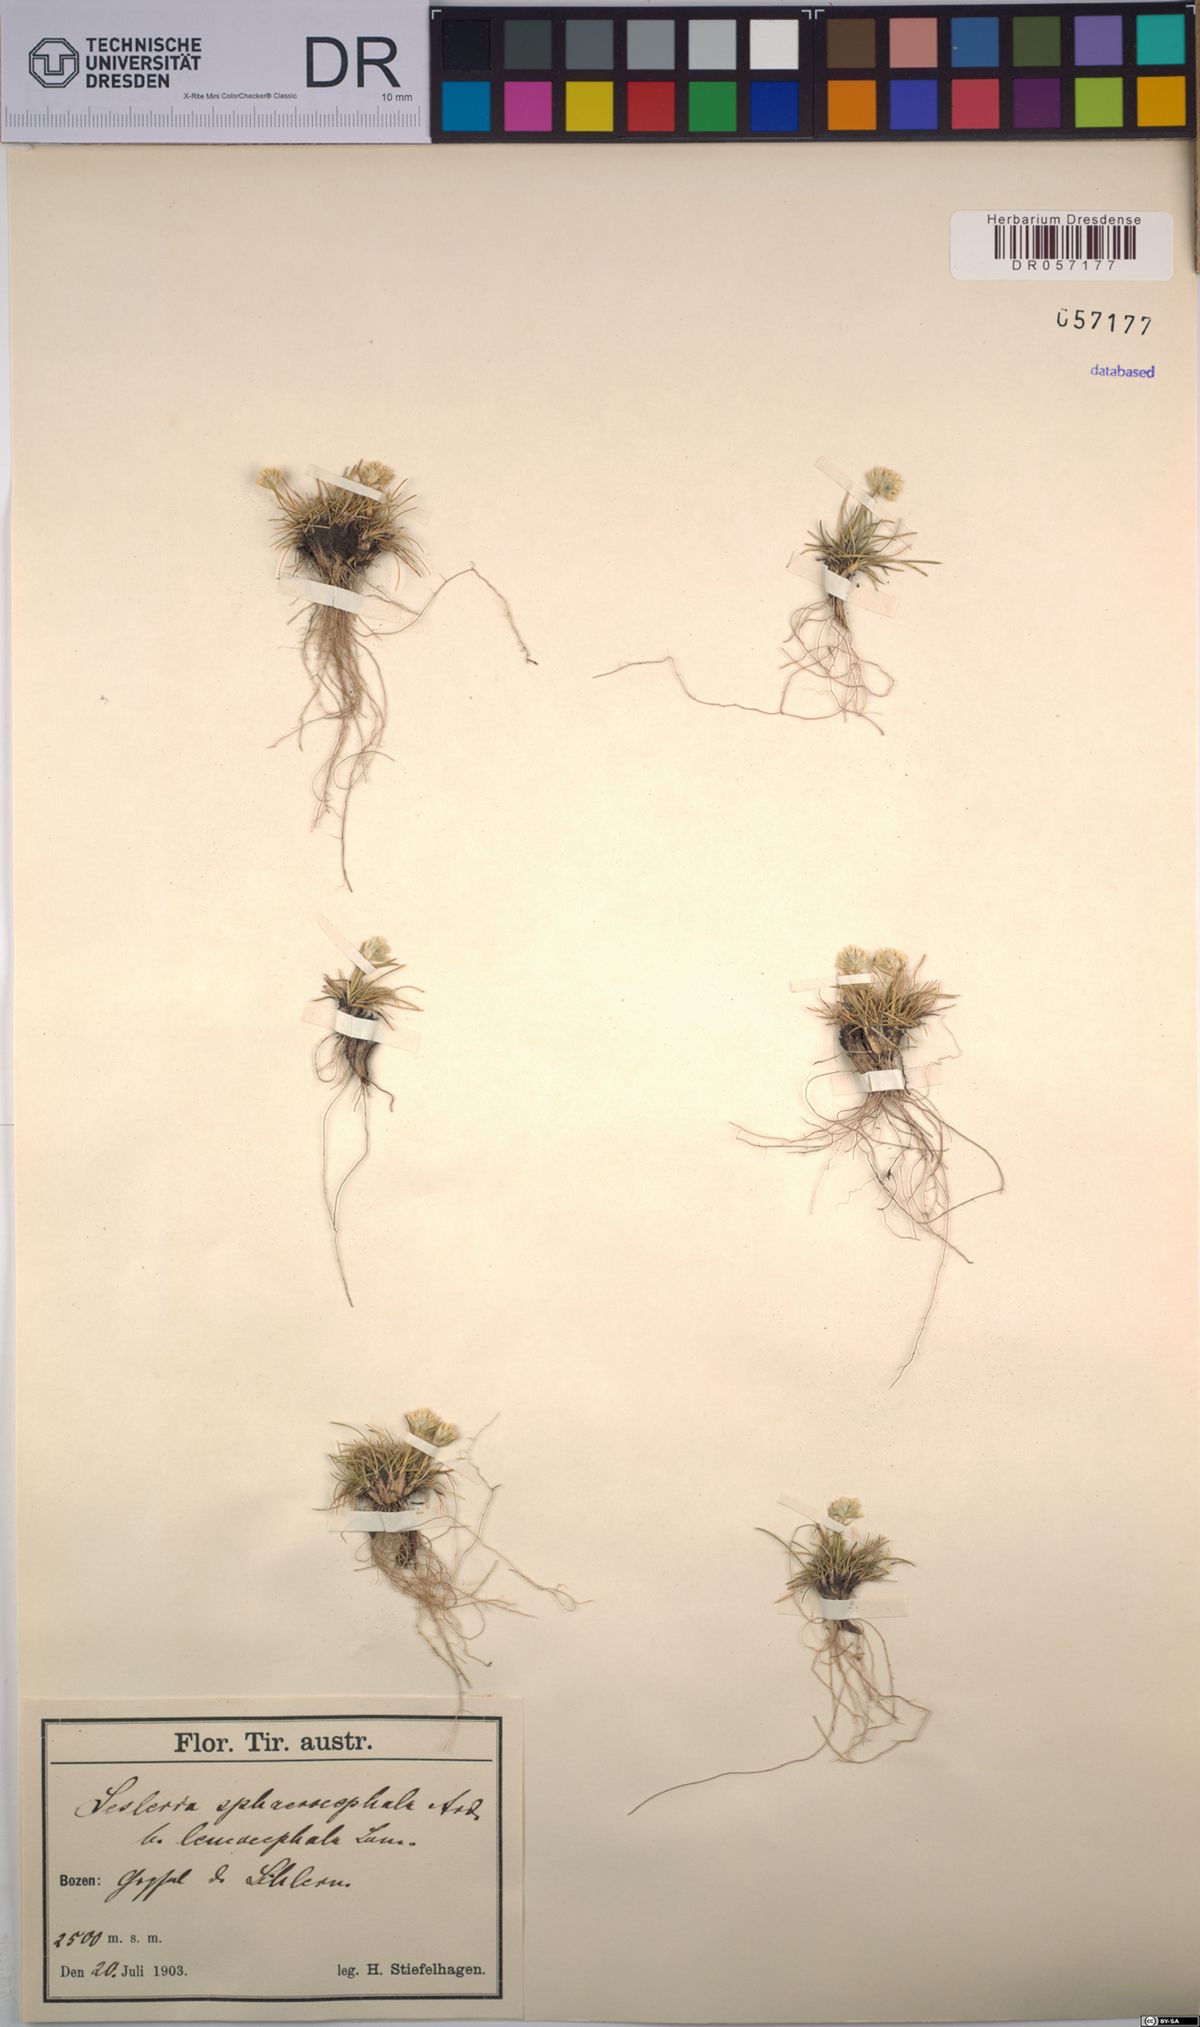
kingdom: Plantae
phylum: Tracheophyta
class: Liliopsida
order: Poales
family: Poaceae
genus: Sesleriella
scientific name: Sesleriella sphaerocephala
